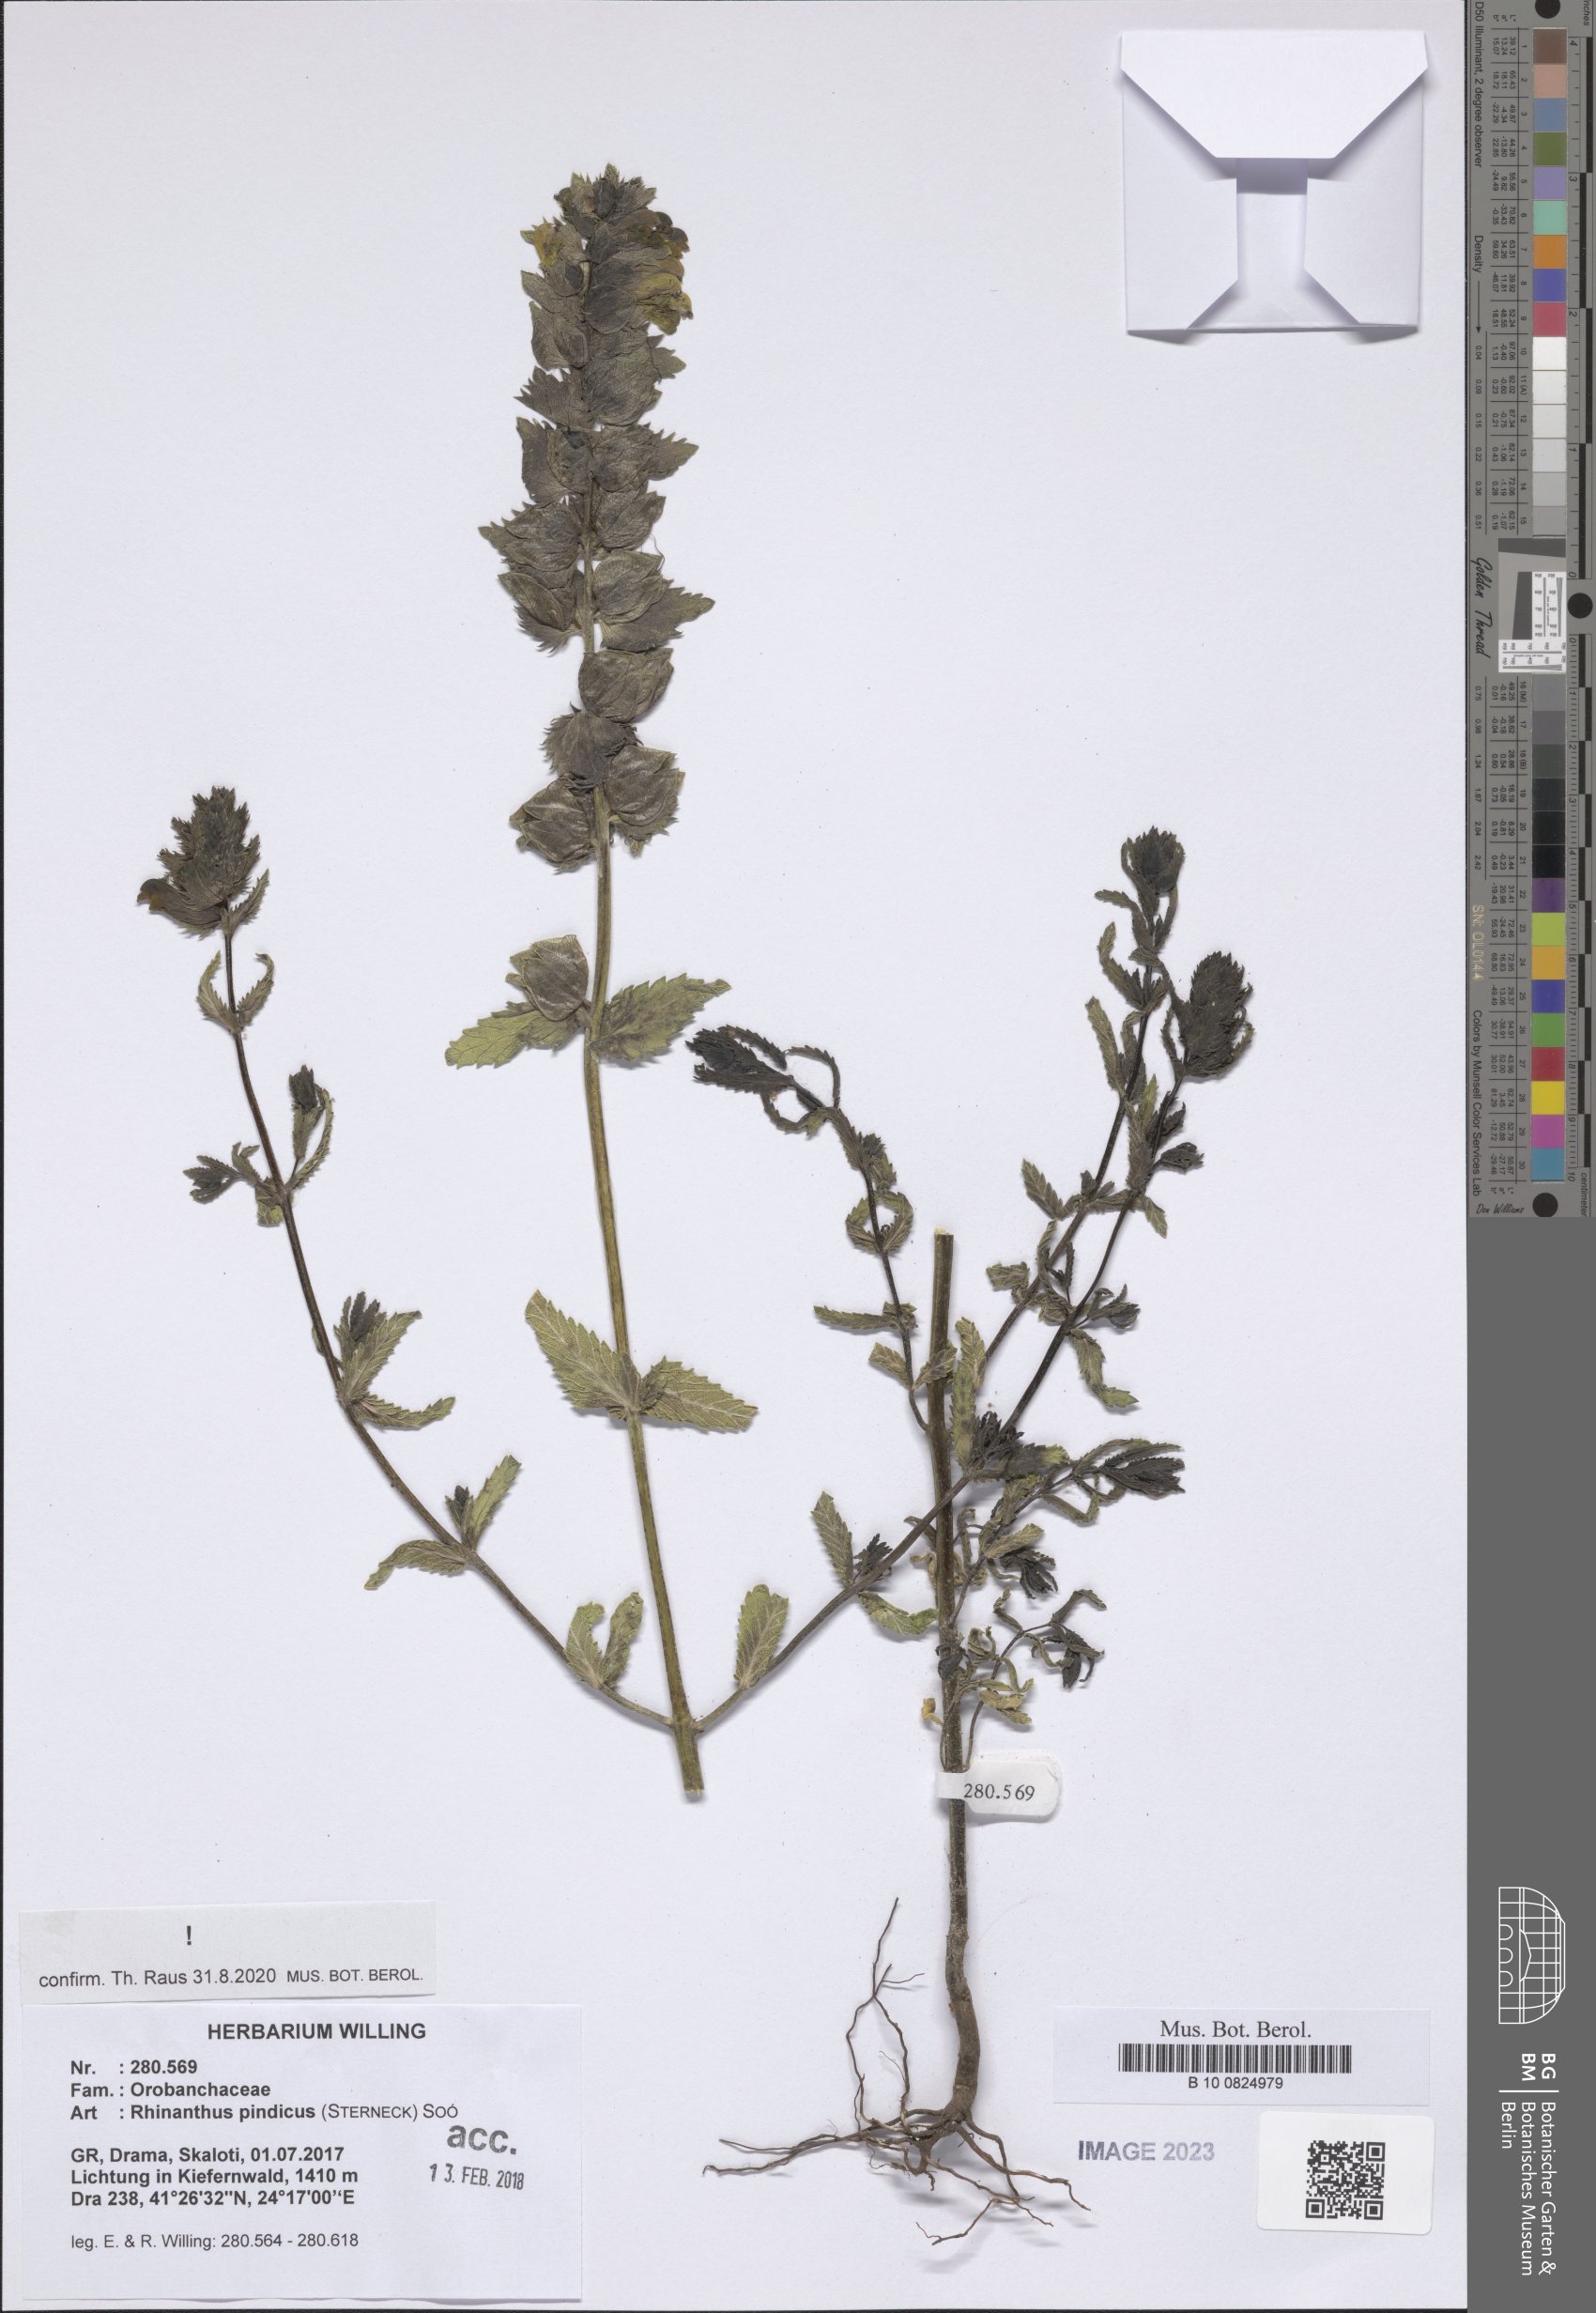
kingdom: Plantae
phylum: Tracheophyta
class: Magnoliopsida
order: Lamiales
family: Orobanchaceae
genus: Rhinanthus
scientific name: Rhinanthus pindicus
